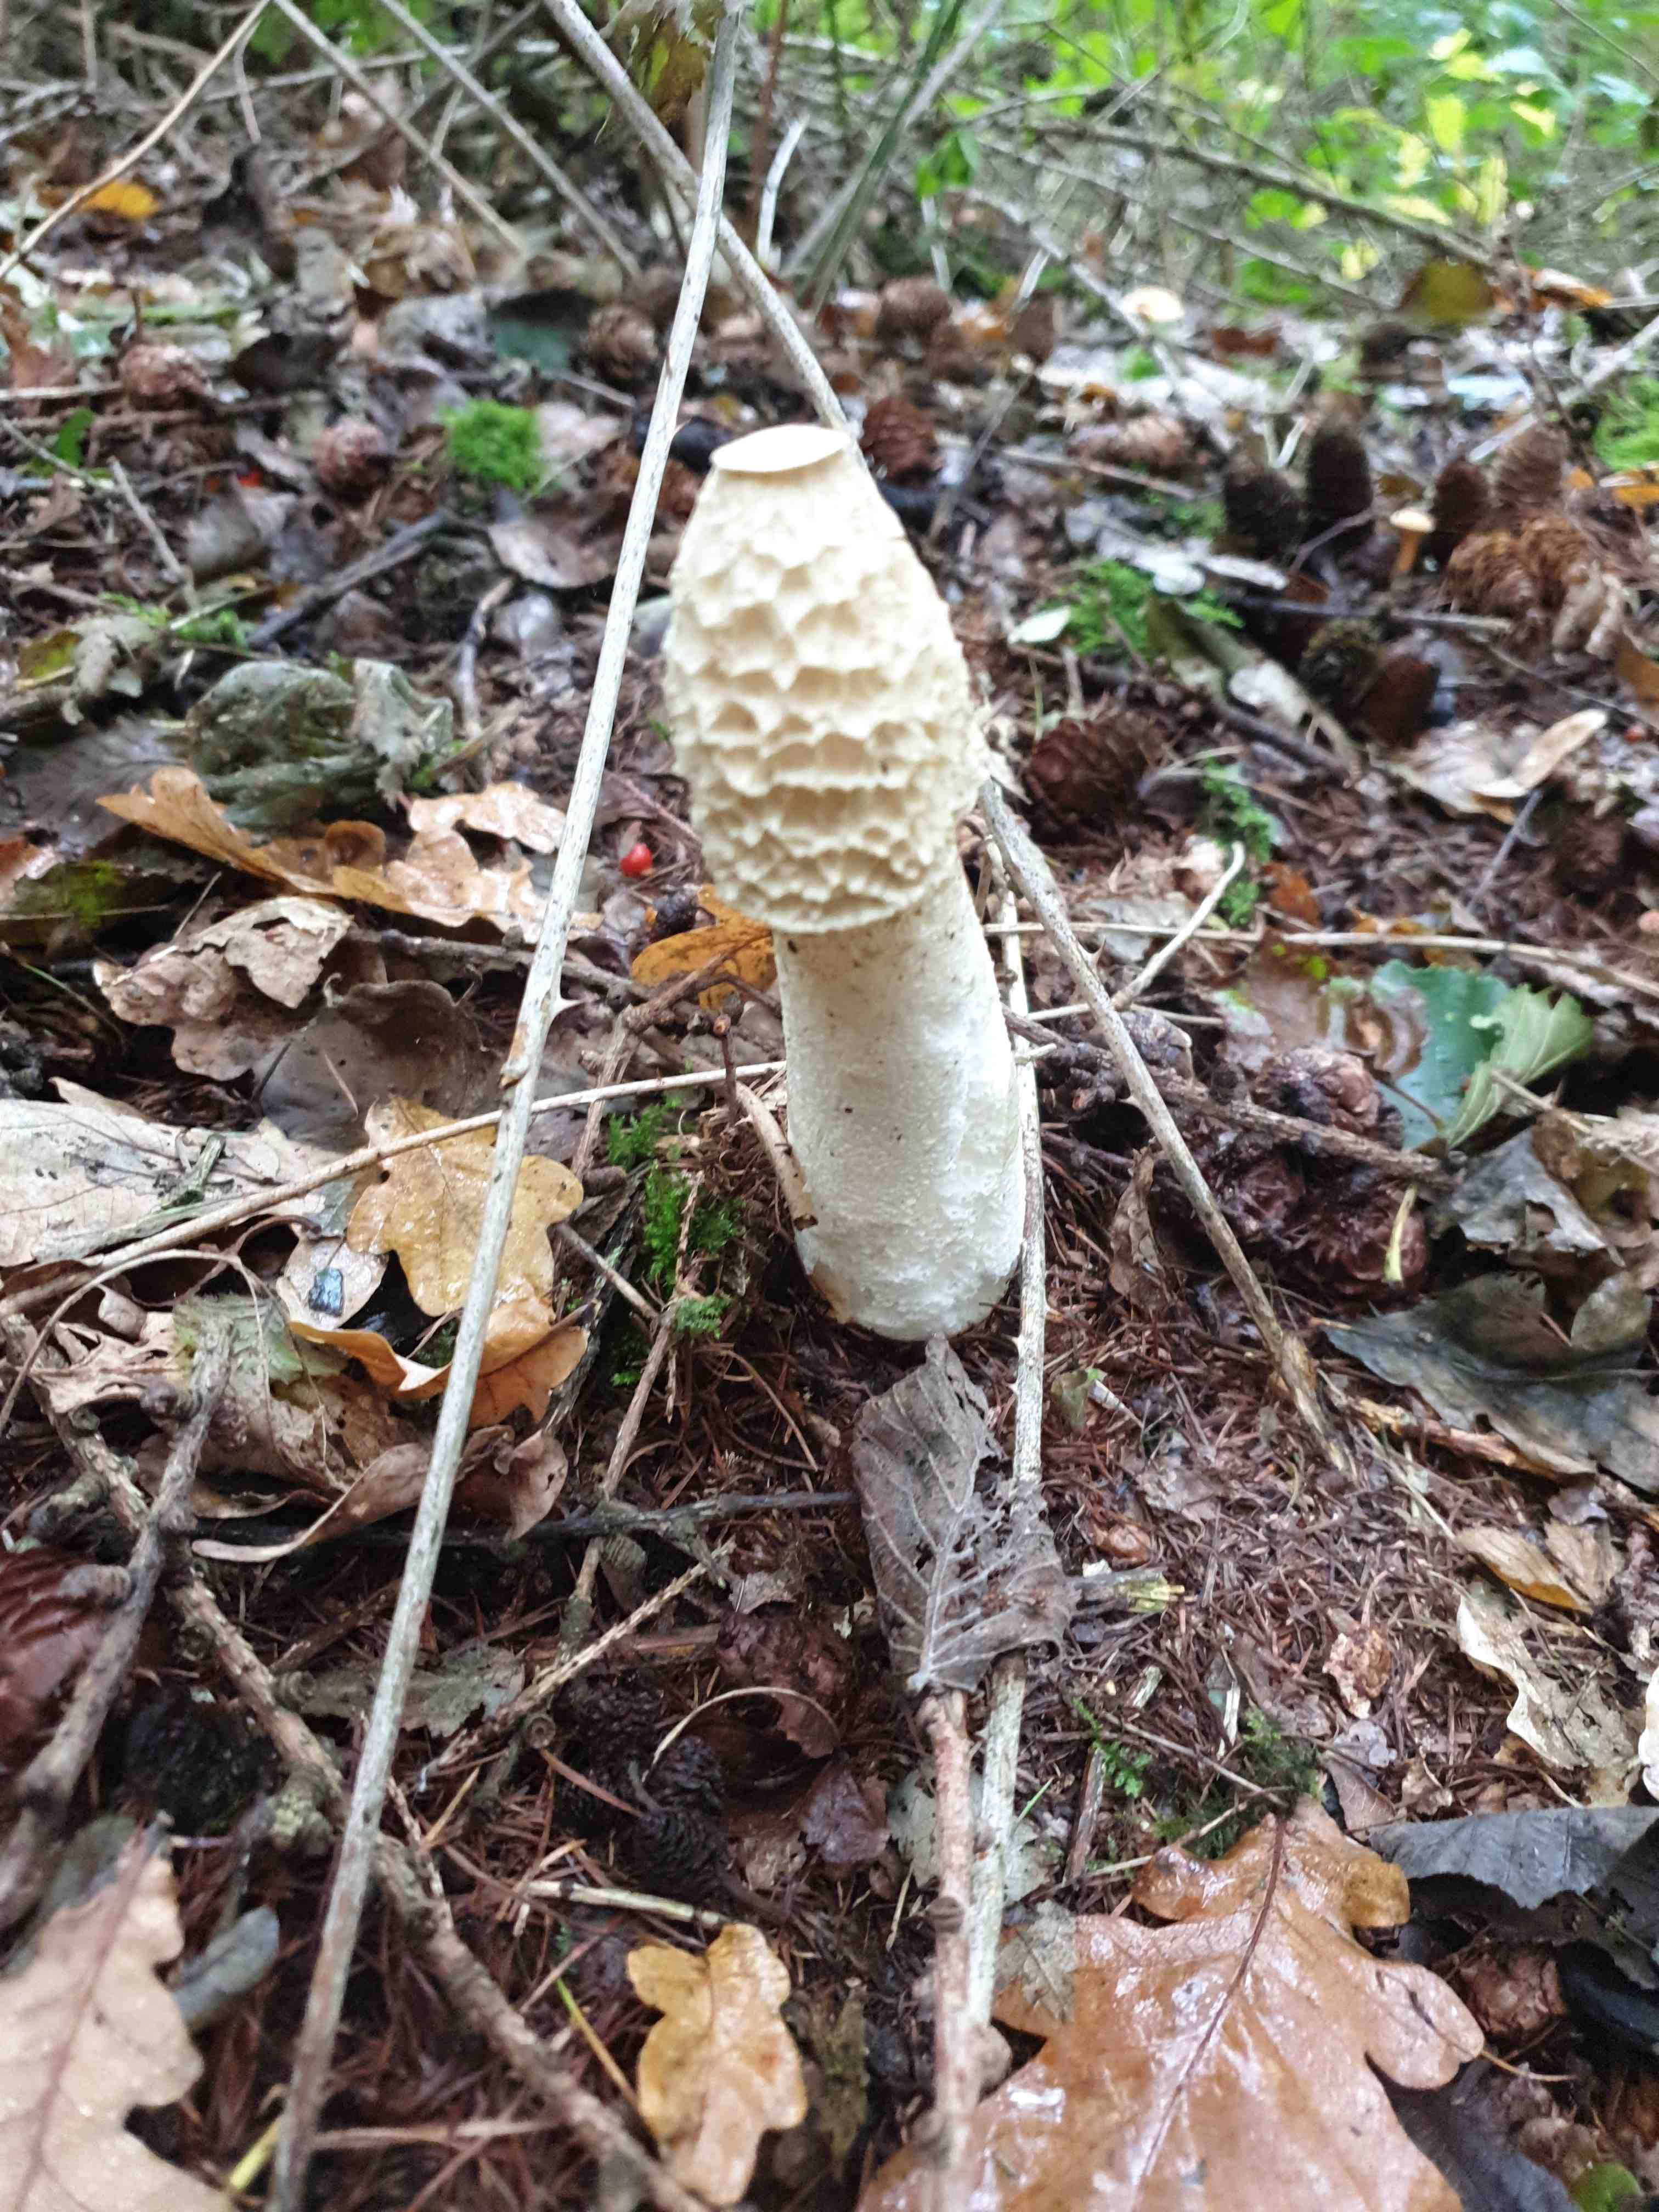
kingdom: Fungi
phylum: Basidiomycota
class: Agaricomycetes
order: Phallales
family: Phallaceae
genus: Phallus
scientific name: Phallus impudicus
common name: almindelig stinksvamp
